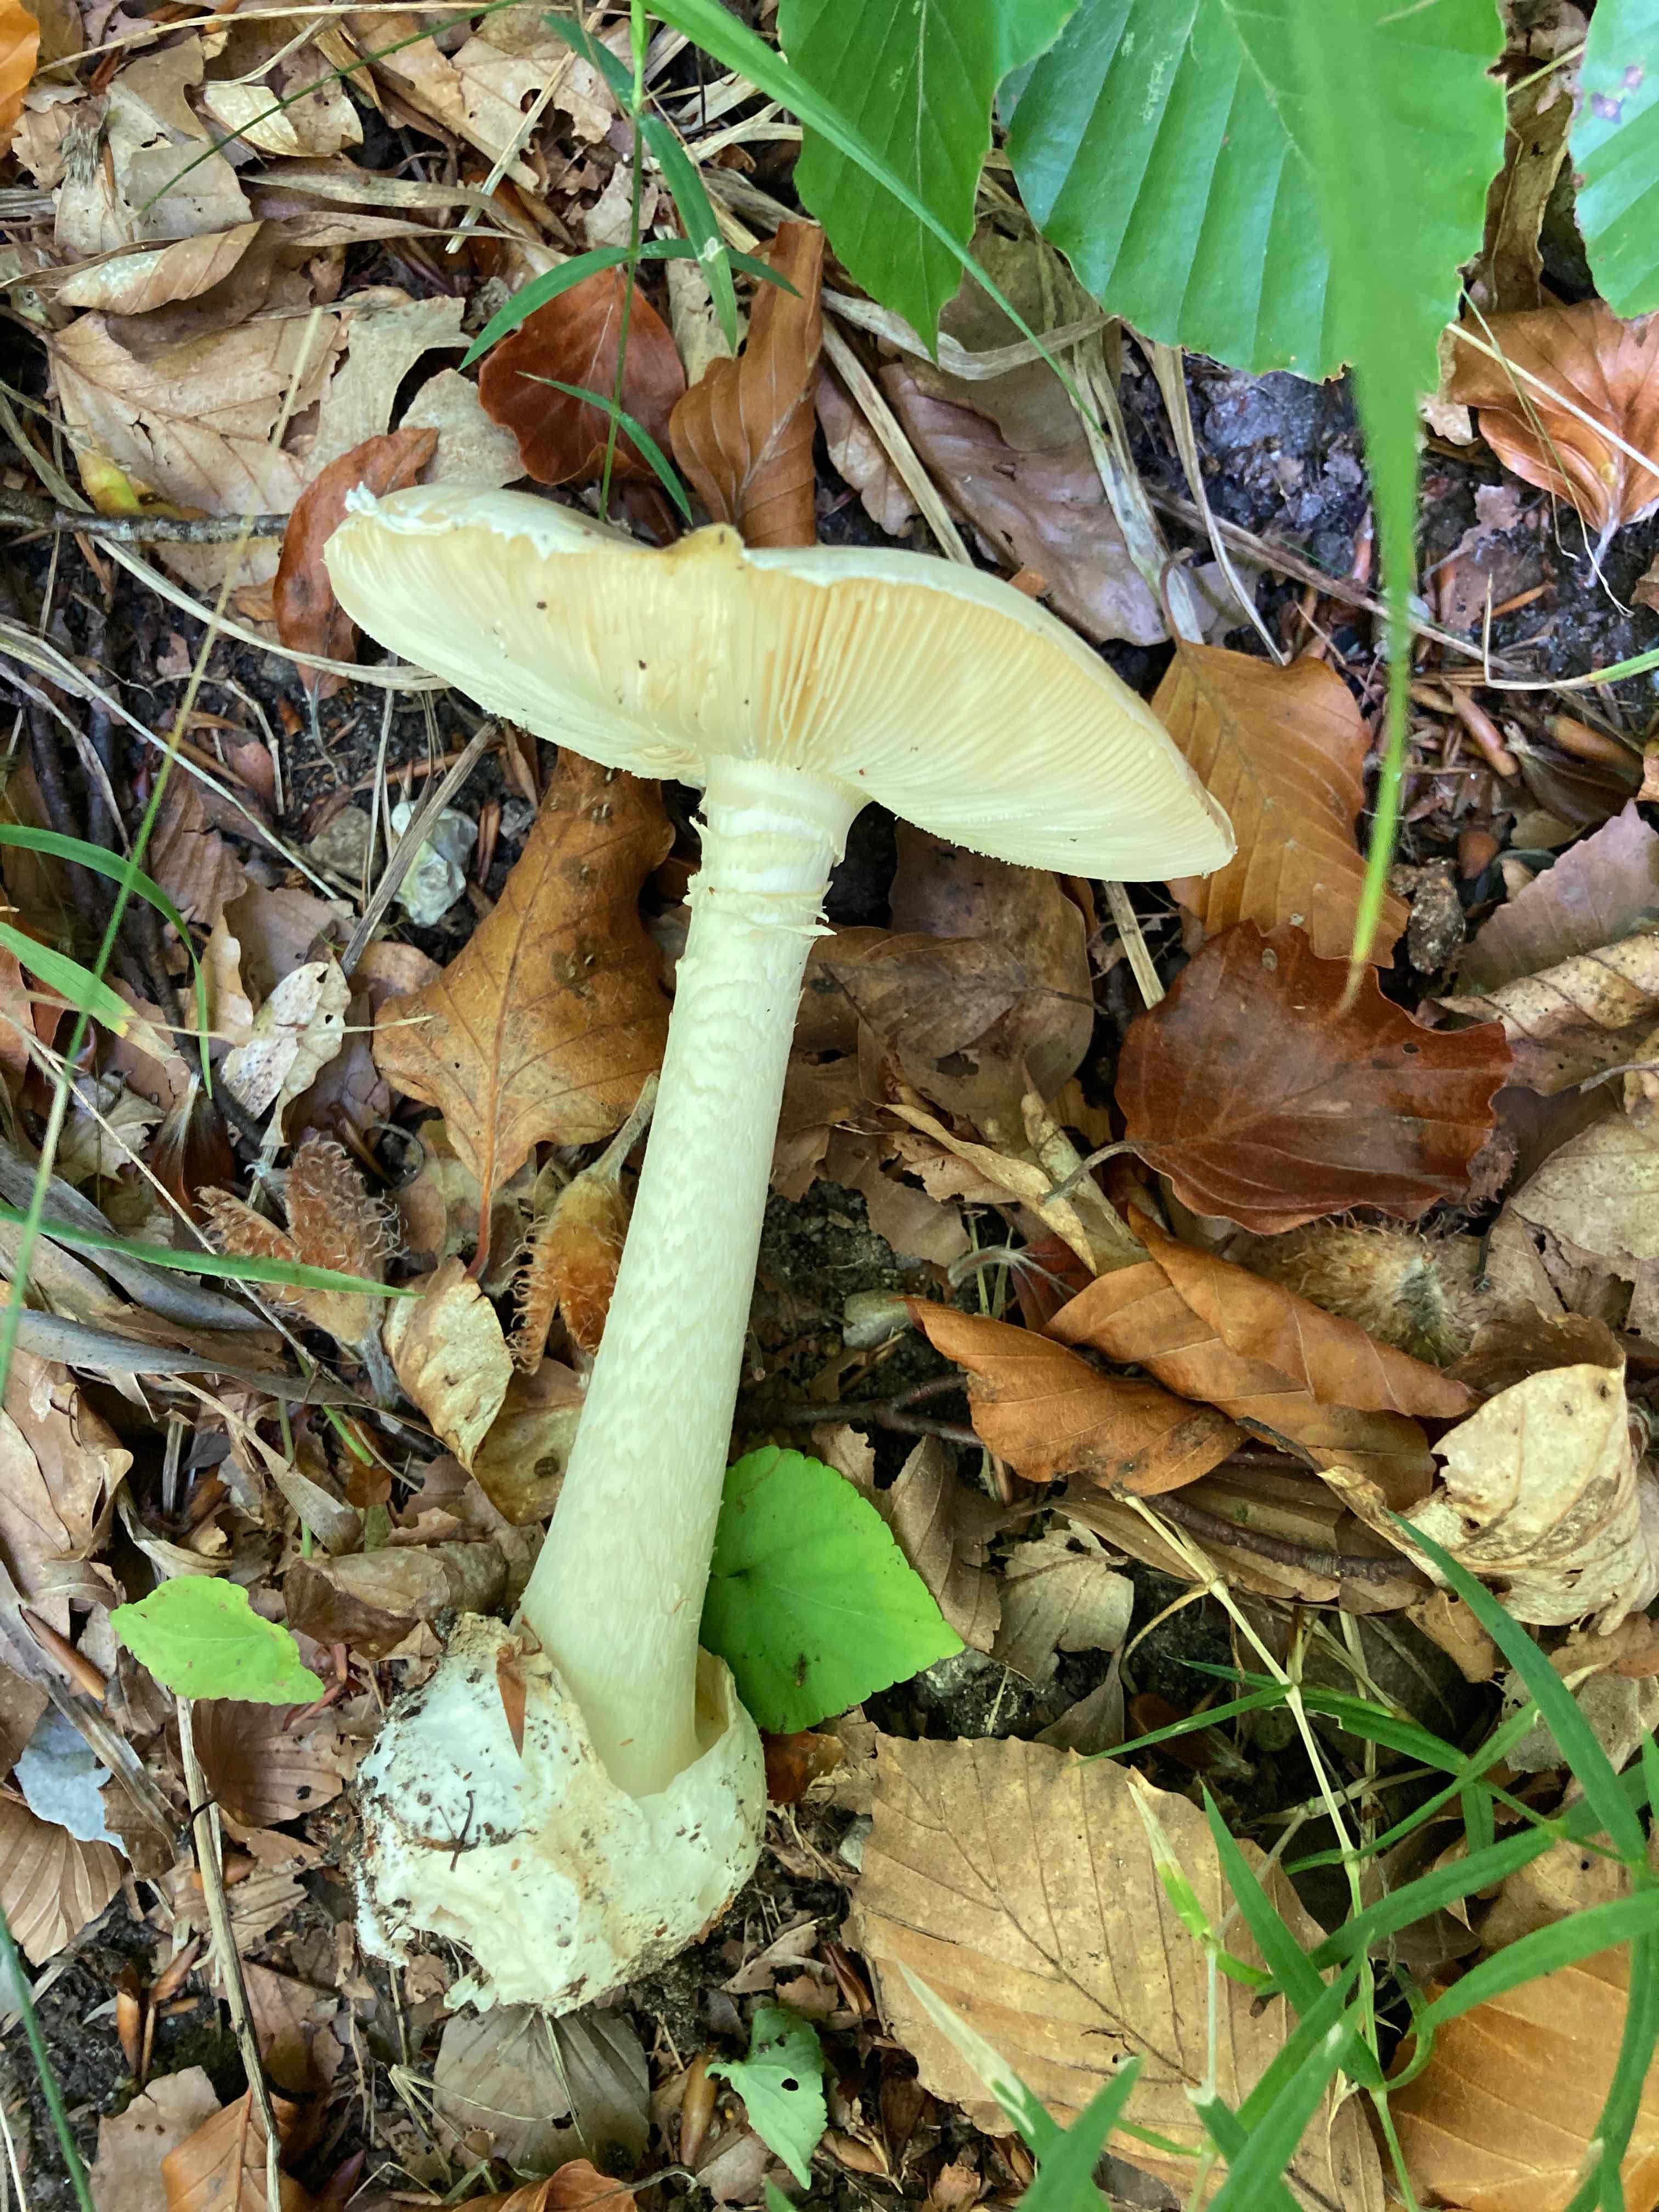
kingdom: Fungi
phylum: Basidiomycota
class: Agaricomycetes
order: Agaricales
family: Amanitaceae
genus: Amanita
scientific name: Amanita phalloides
